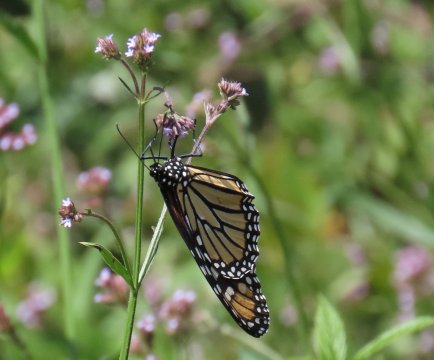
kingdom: Animalia
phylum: Arthropoda
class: Insecta
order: Lepidoptera
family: Nymphalidae
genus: Danaus
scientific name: Danaus plexippus
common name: Monarch
